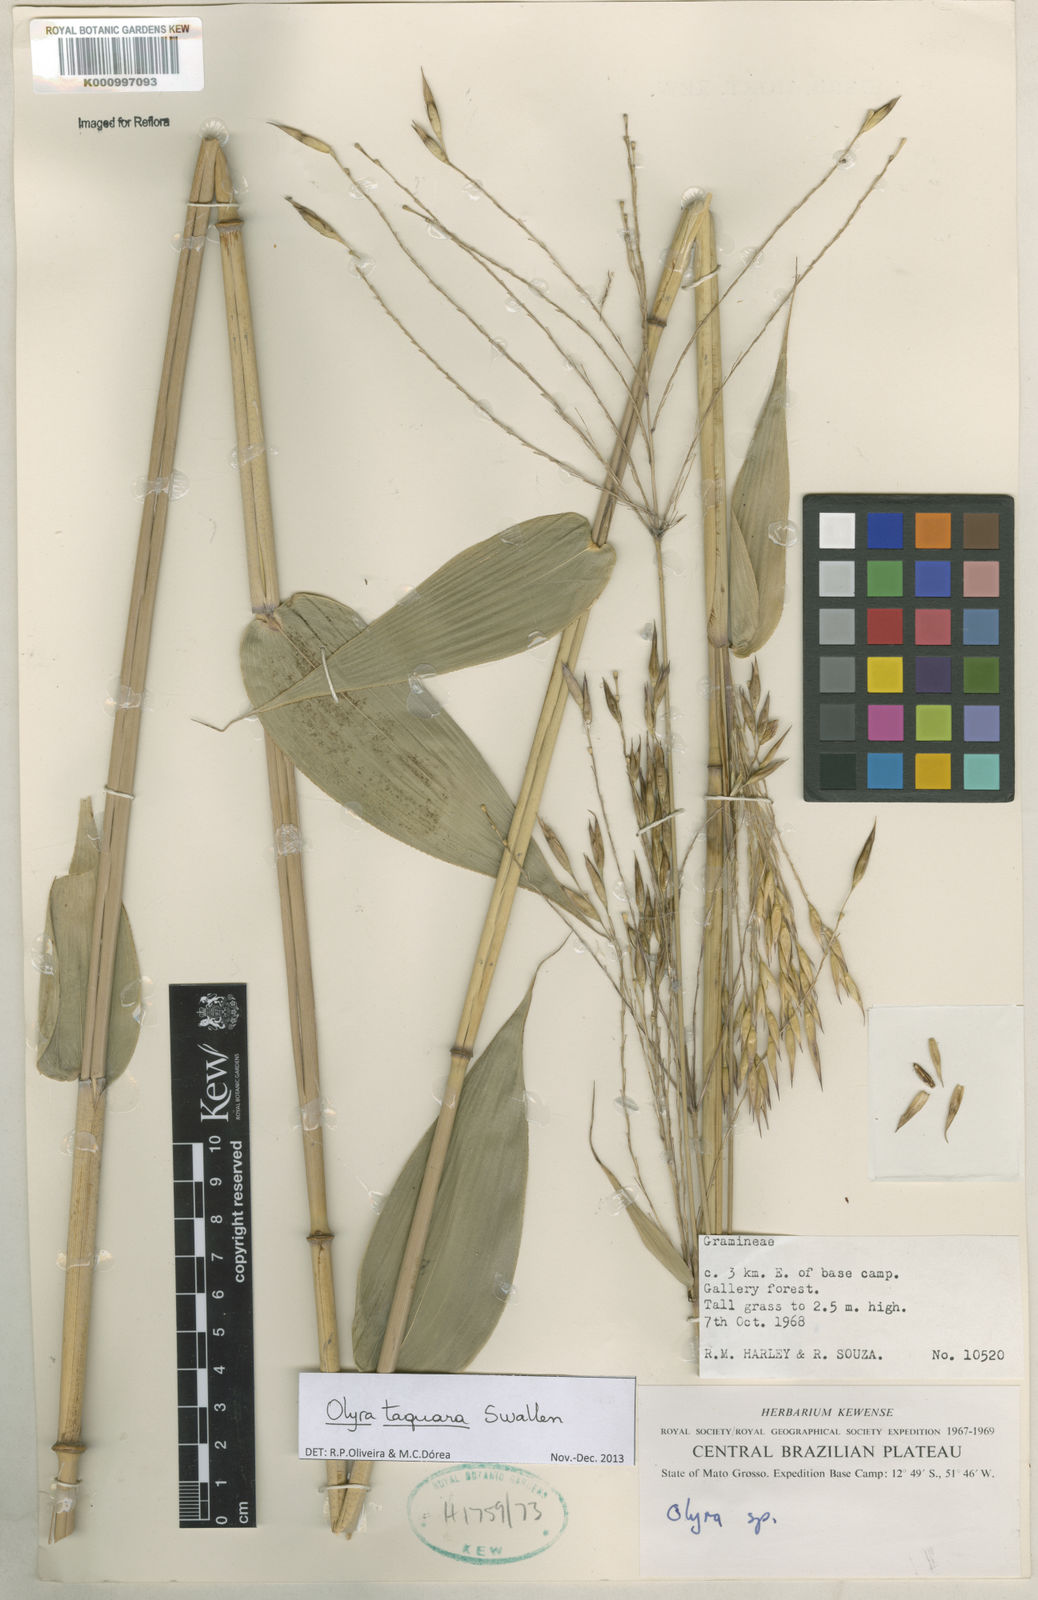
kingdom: Plantae
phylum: Tracheophyta
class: Liliopsida
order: Poales
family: Poaceae
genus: Olyra
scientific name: Olyra taquara
